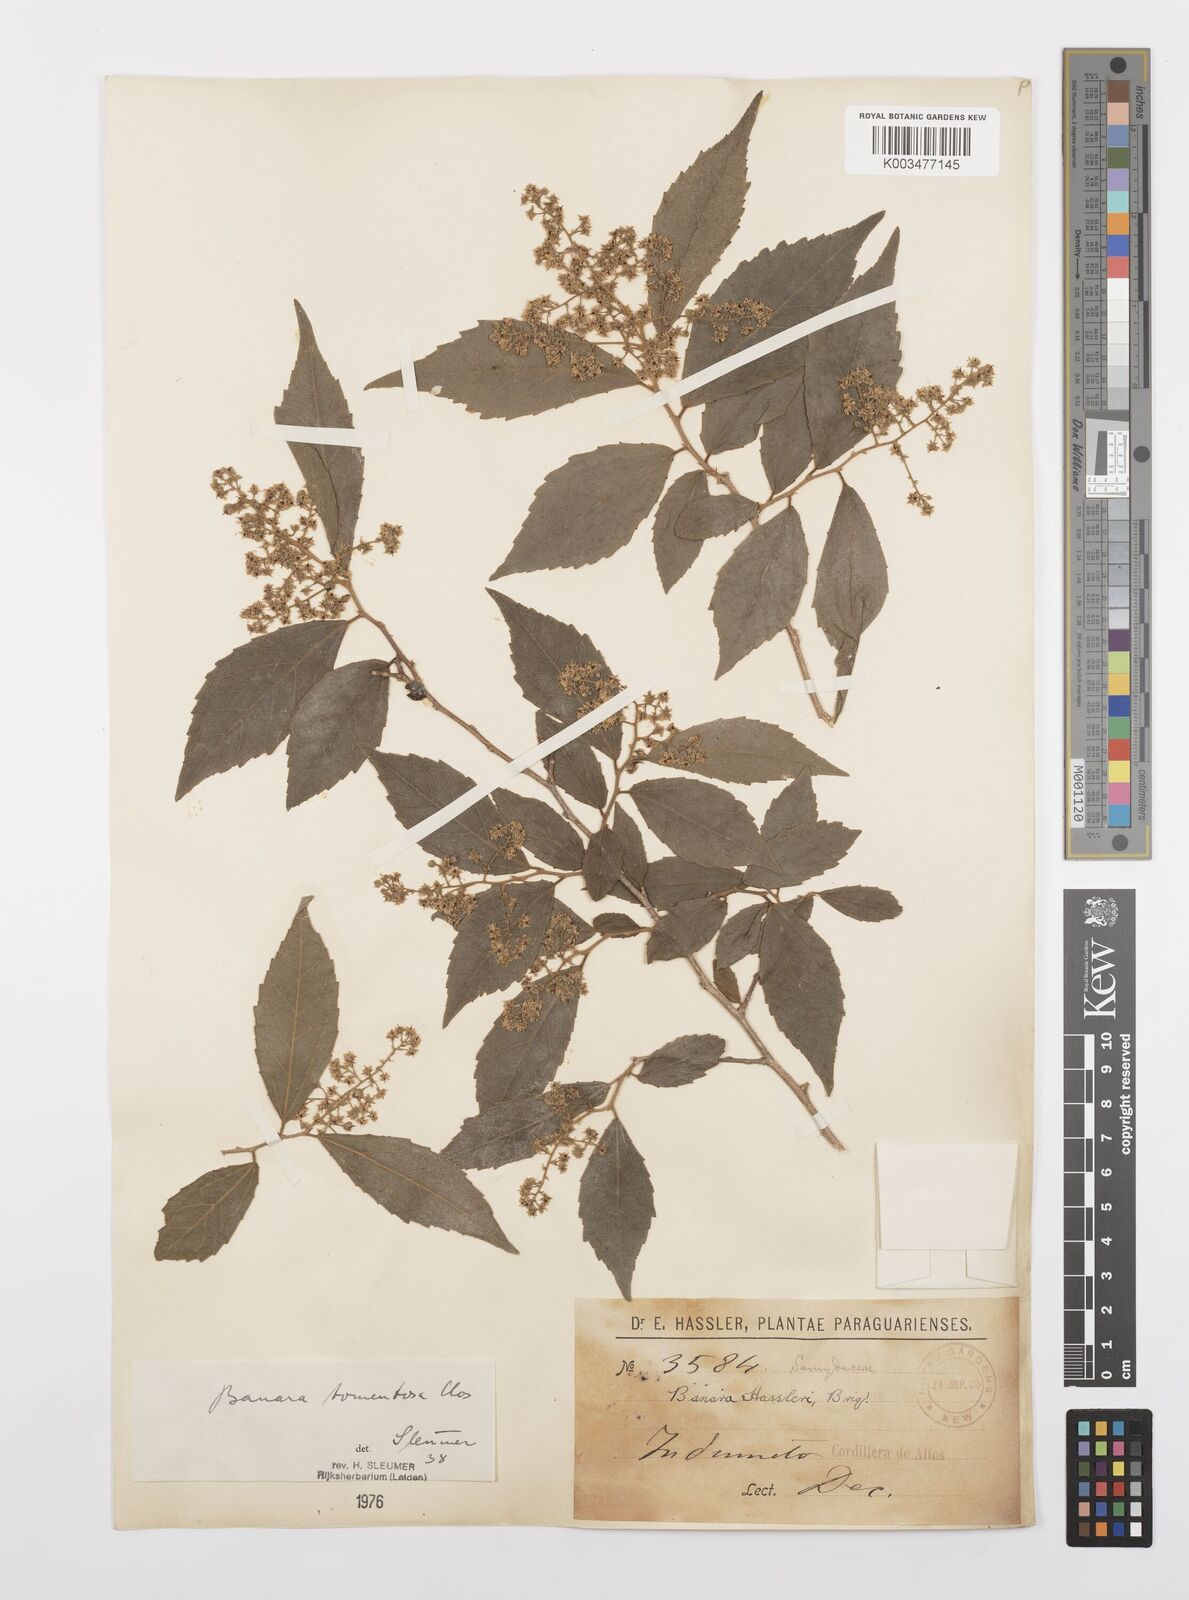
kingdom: Plantae
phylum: Tracheophyta
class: Magnoliopsida
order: Malpighiales
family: Salicaceae
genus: Banara
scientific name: Banara tomentosa
